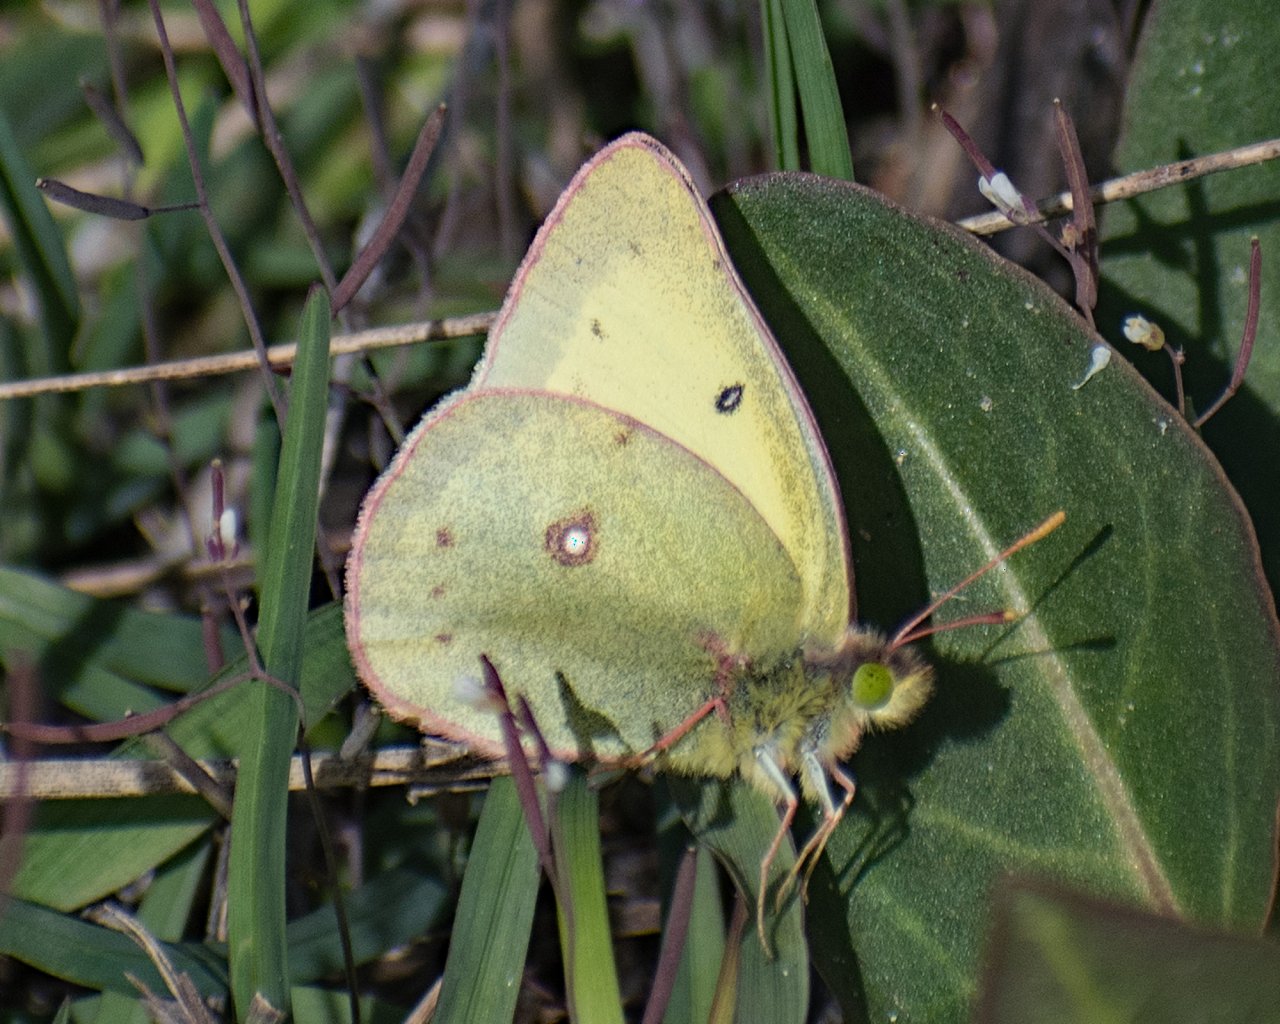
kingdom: Animalia
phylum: Arthropoda
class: Insecta
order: Lepidoptera
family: Pieridae
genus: Colias
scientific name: Colias
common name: Clouded Yellows
